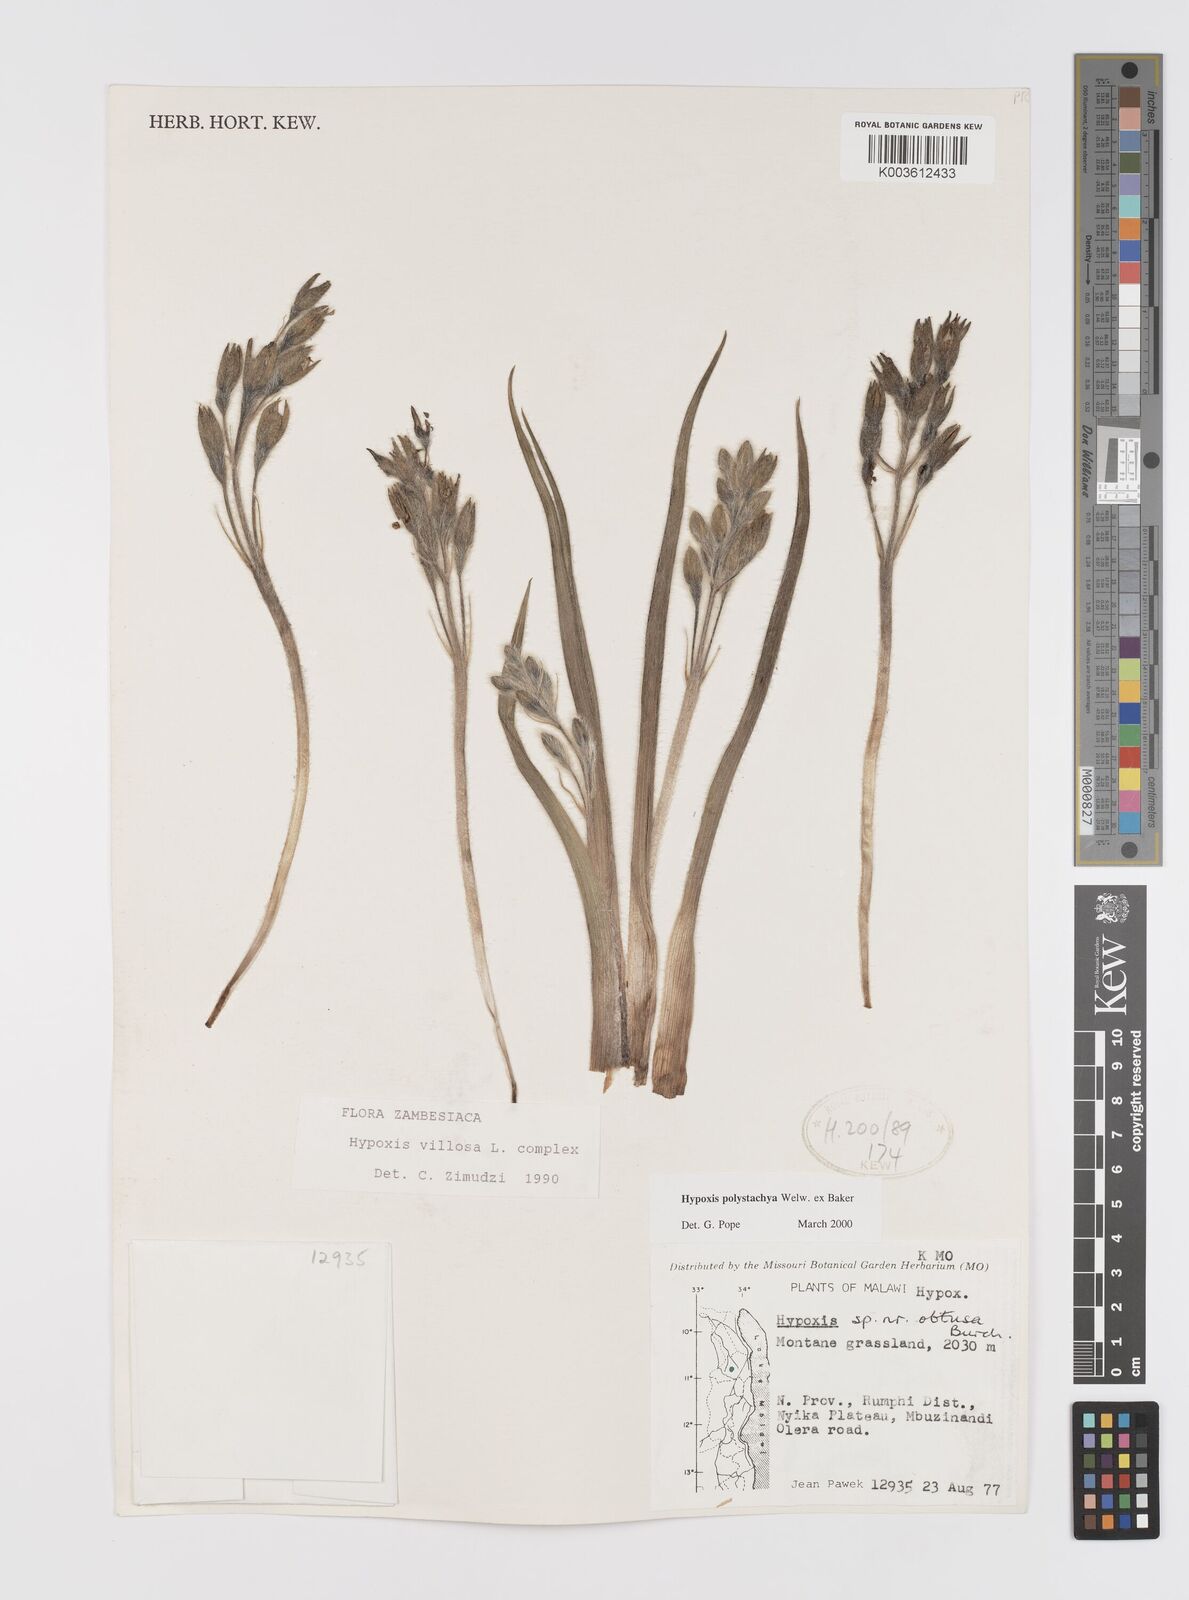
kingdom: Plantae
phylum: Tracheophyta
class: Liliopsida
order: Asparagales
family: Hypoxidaceae
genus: Hypoxis
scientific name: Hypoxis polystachya
